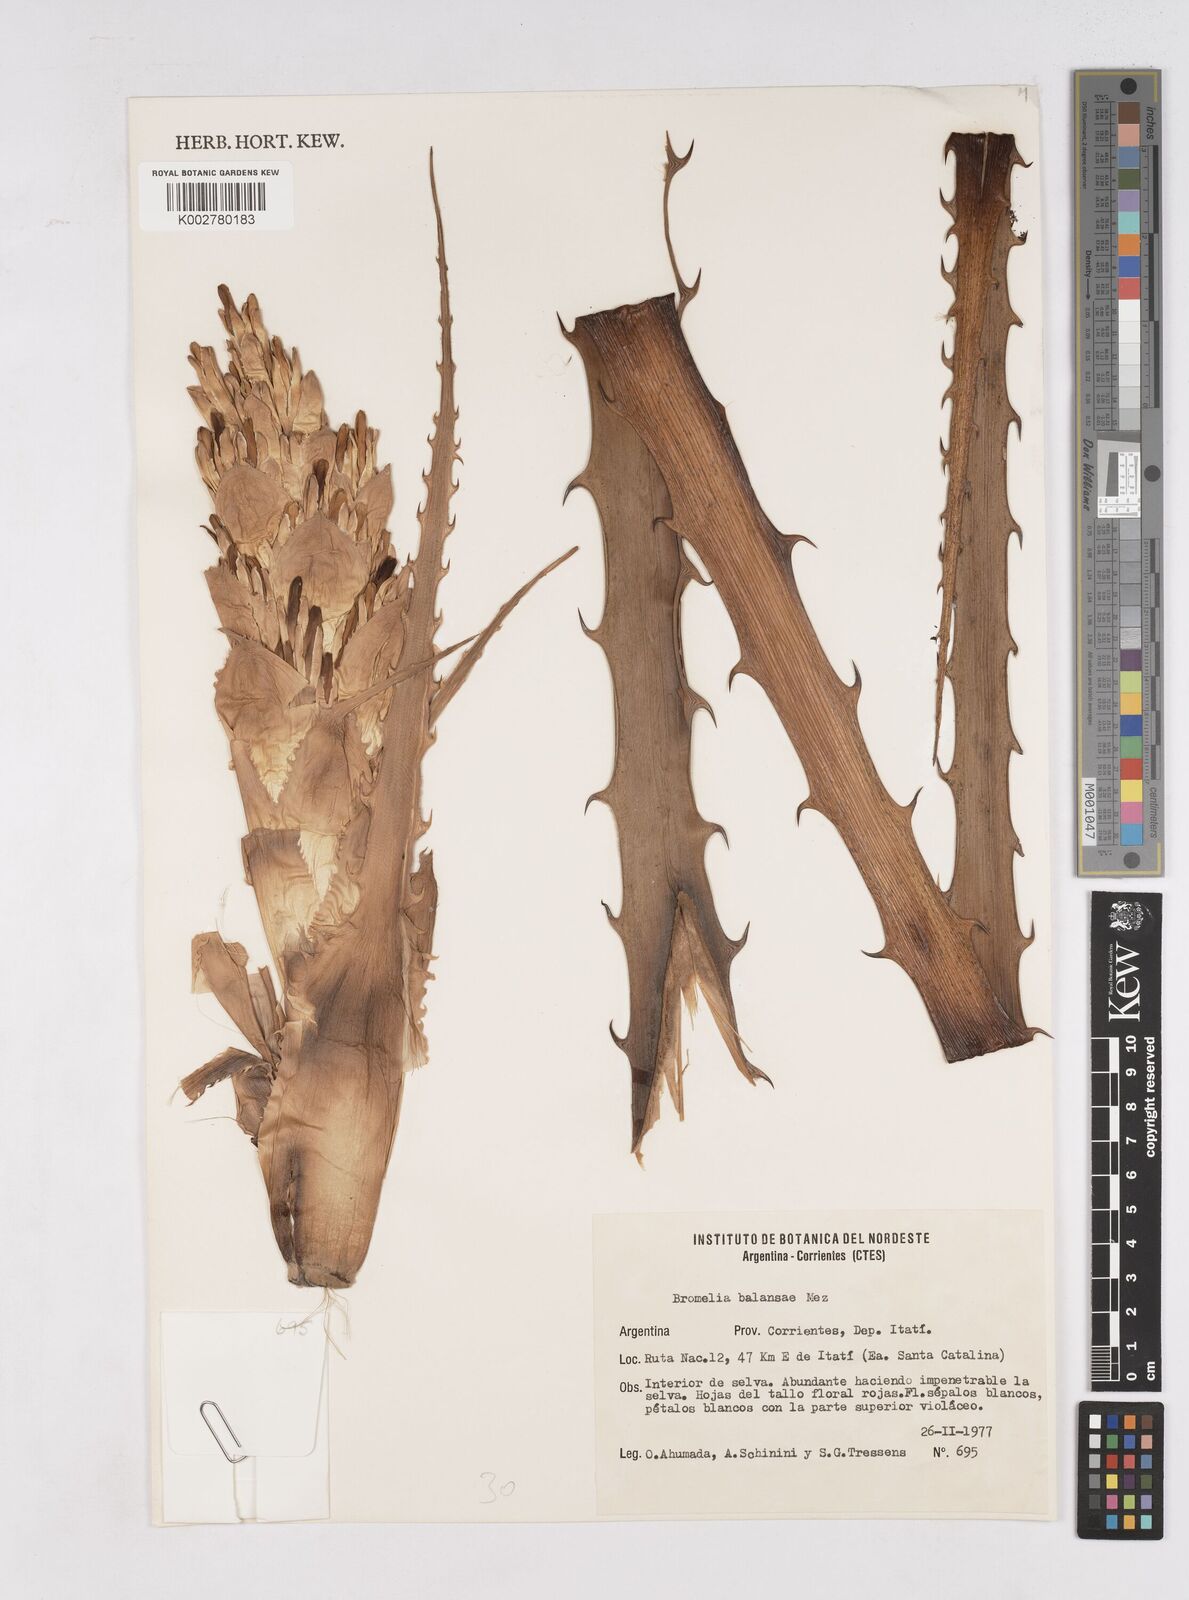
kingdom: Plantae
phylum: Tracheophyta
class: Liliopsida
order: Poales
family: Bromeliaceae
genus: Bromelia
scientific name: Bromelia balansae
